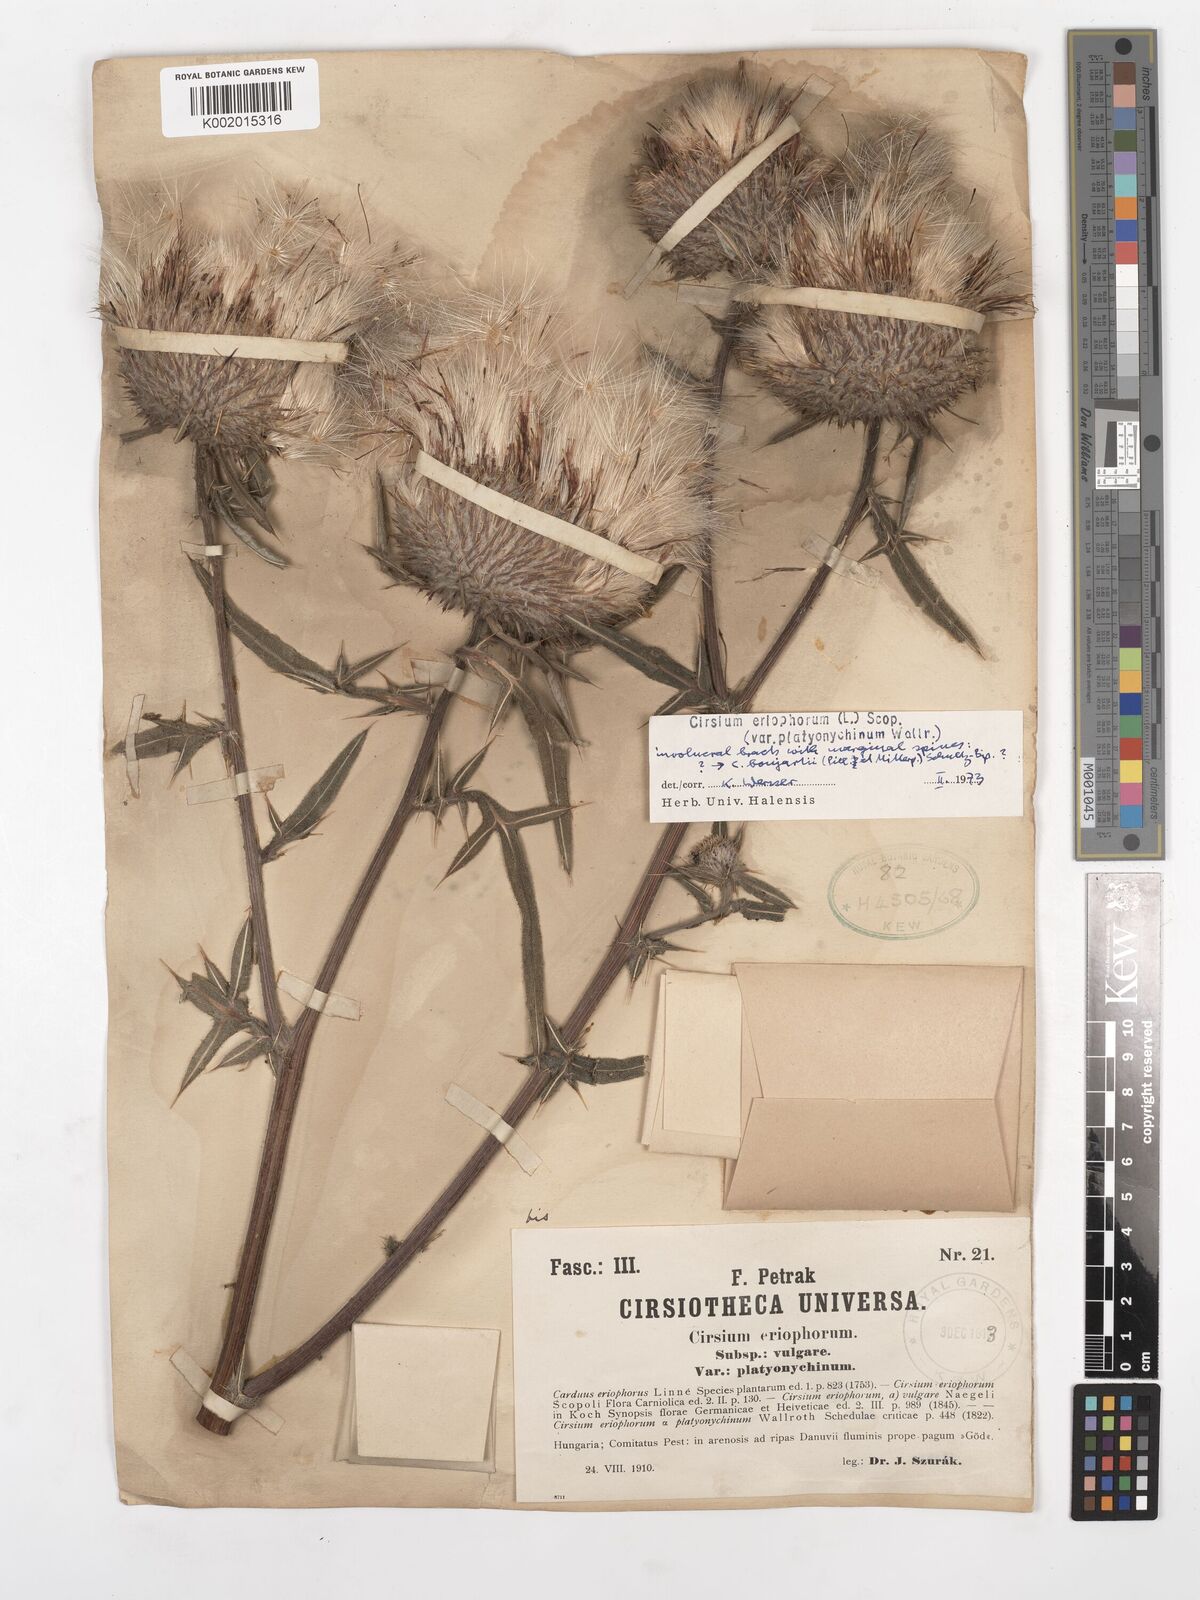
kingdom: Plantae
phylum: Tracheophyta
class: Magnoliopsida
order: Asterales
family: Asteraceae
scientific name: Asteraceae
